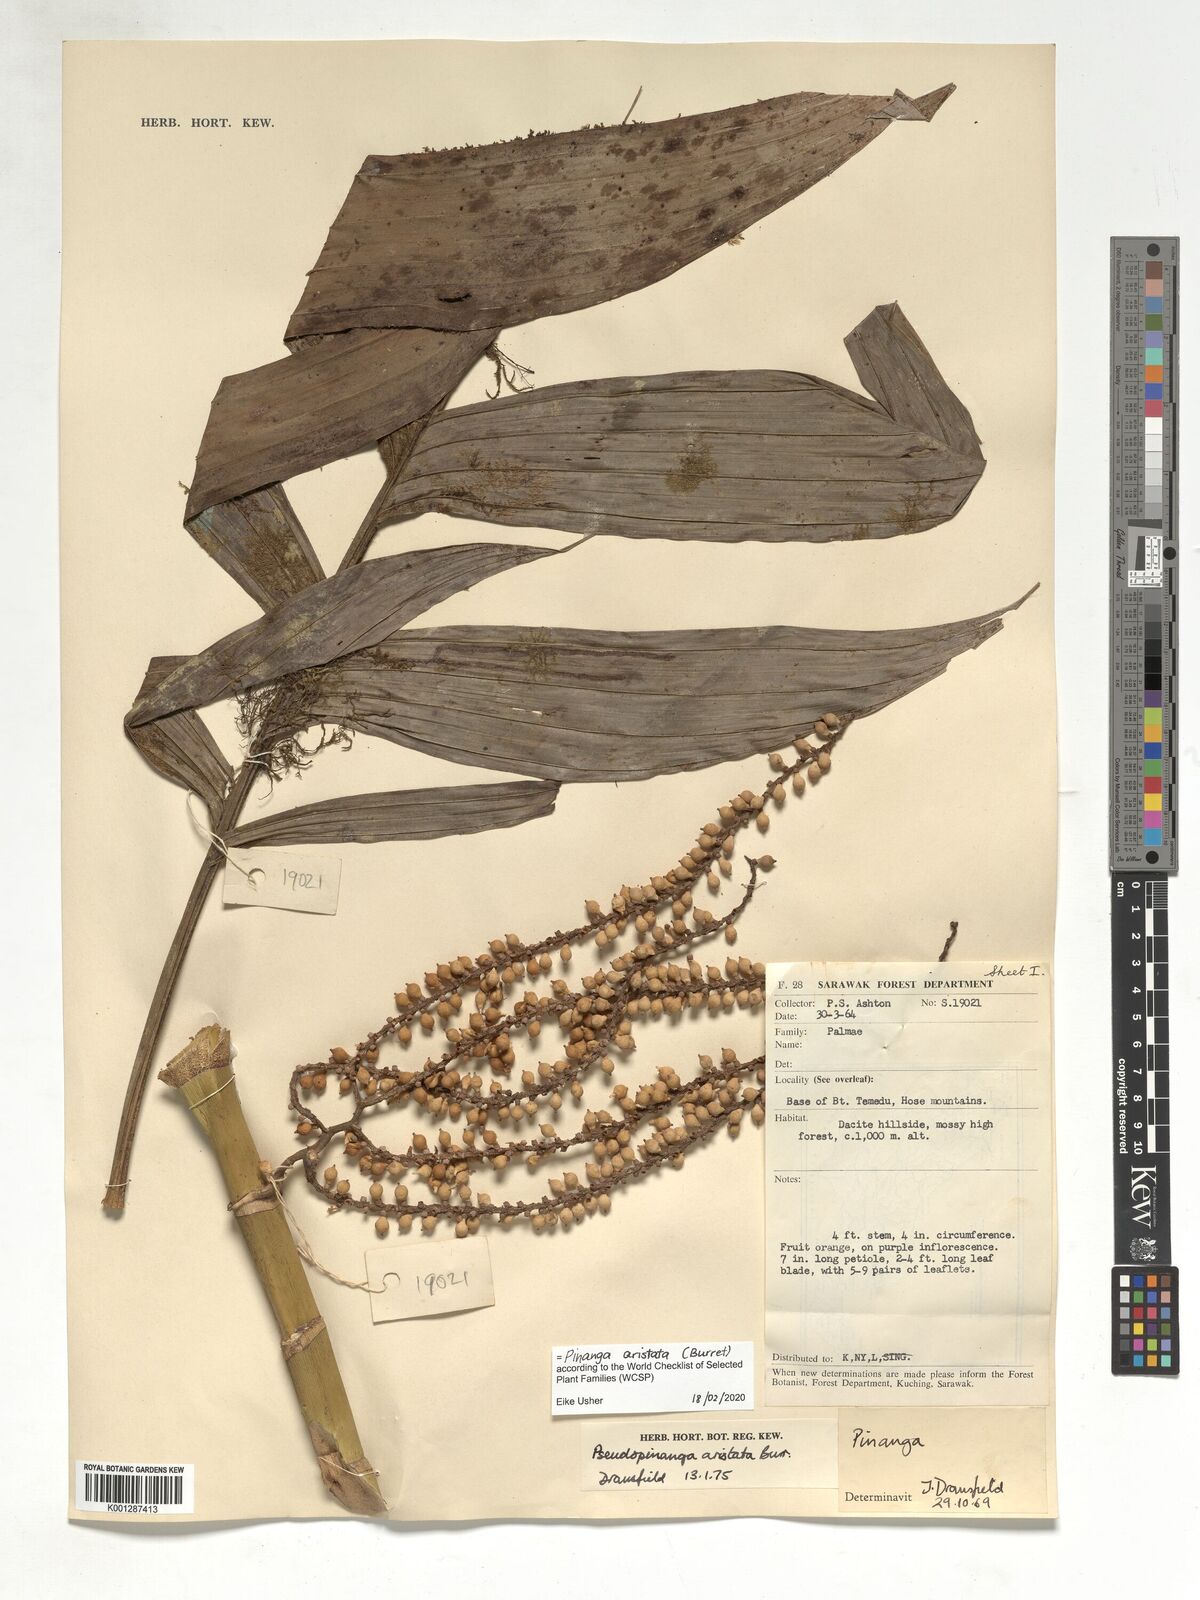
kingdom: Plantae
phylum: Tracheophyta
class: Liliopsida
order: Arecales
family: Arecaceae
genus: Pinanga
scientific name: Pinanga aristata
